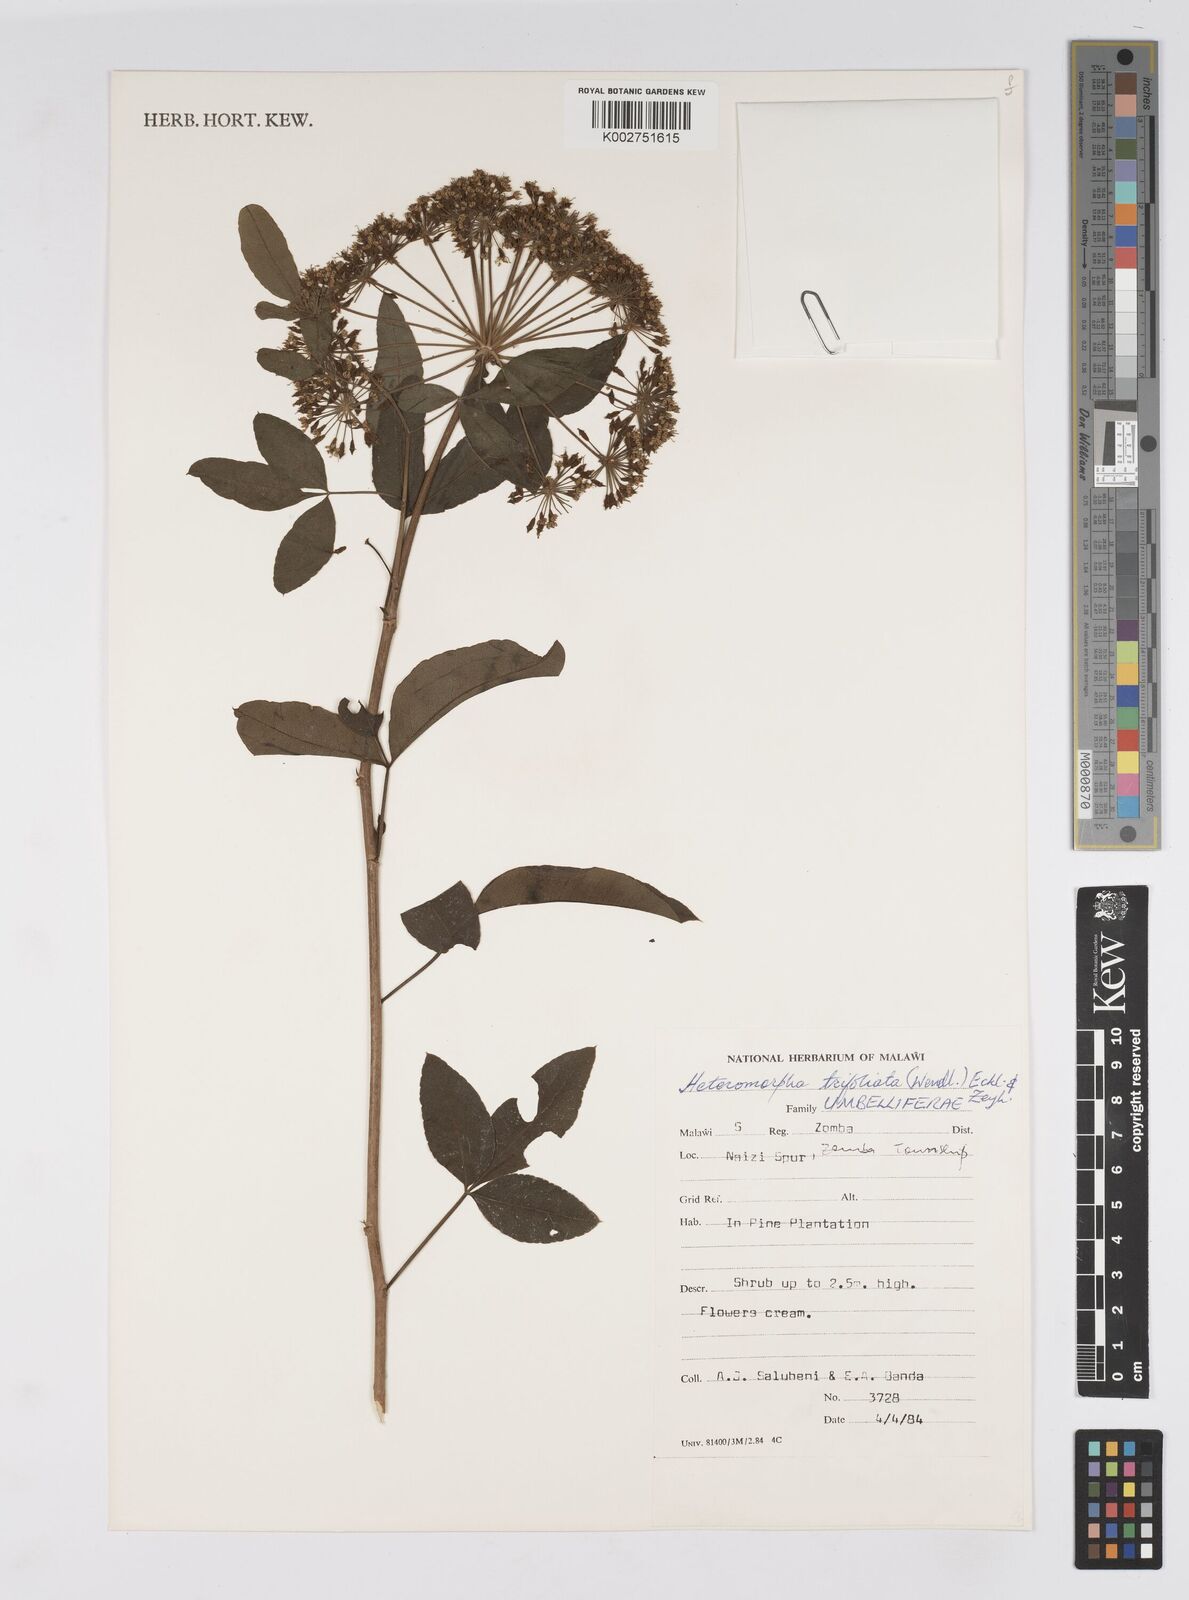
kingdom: Plantae
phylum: Tracheophyta
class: Magnoliopsida
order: Apiales
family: Apiaceae
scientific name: Apiaceae
